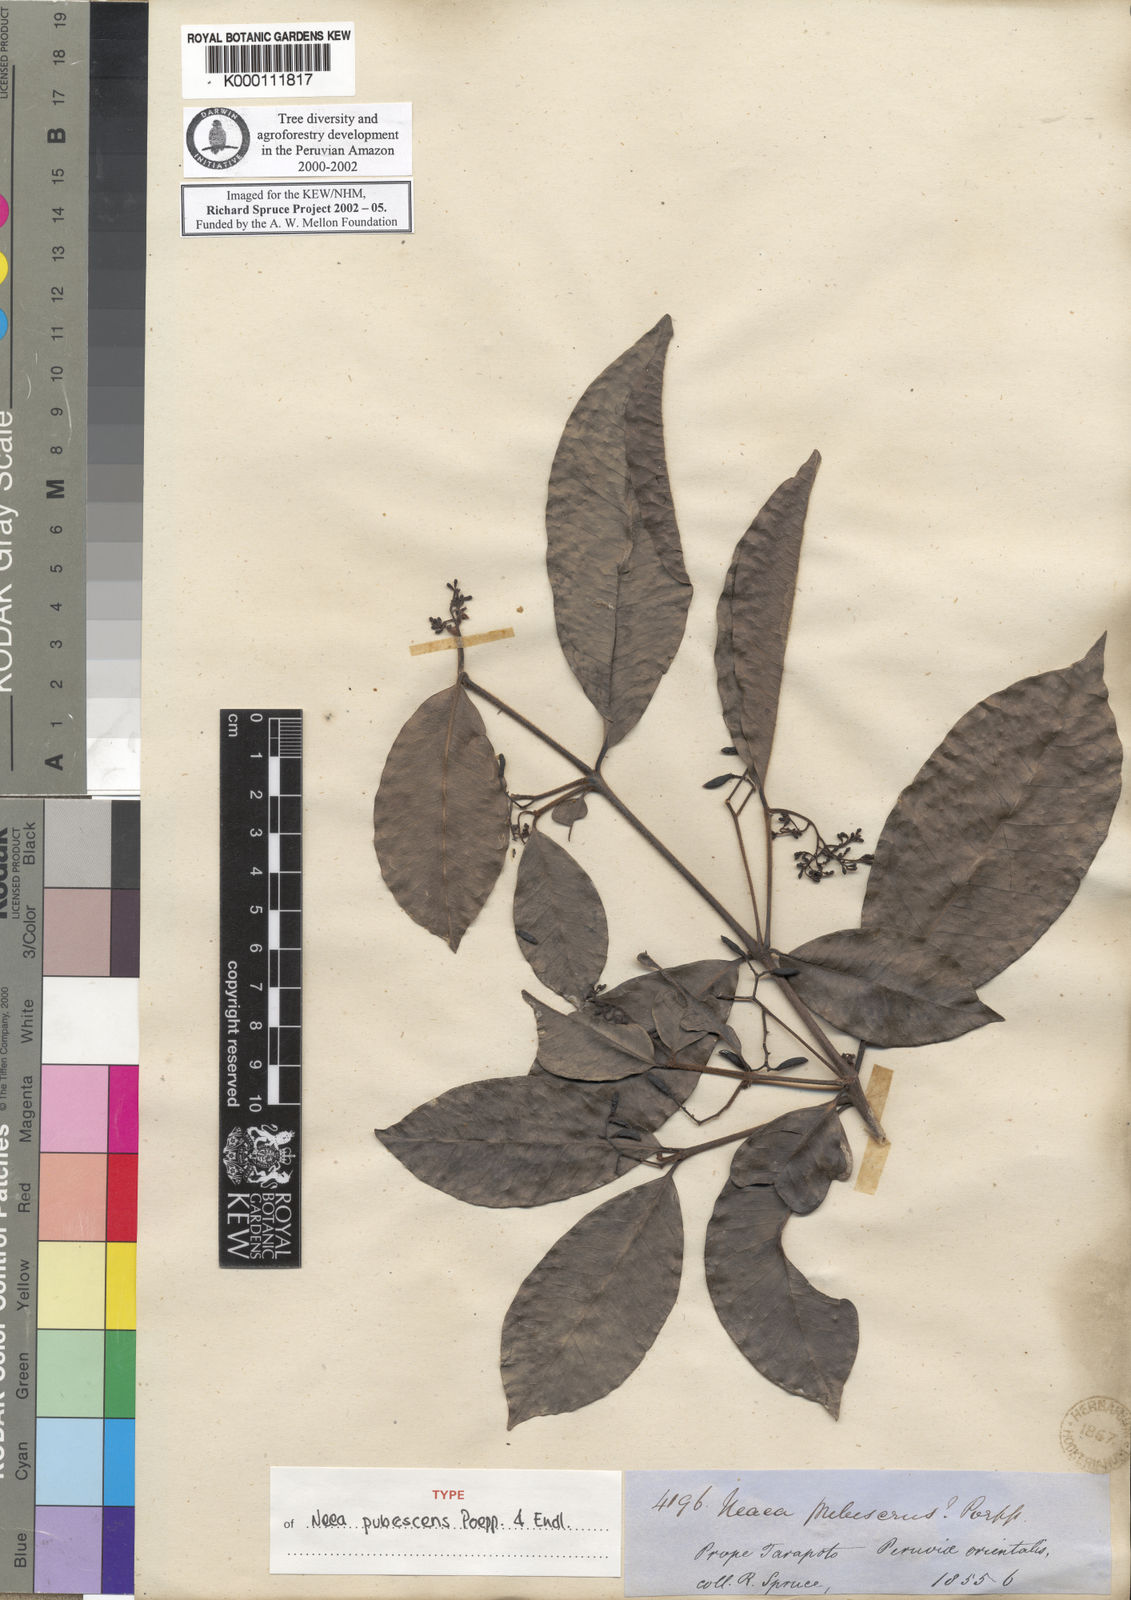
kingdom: Plantae
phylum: Tracheophyta
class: Magnoliopsida
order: Caryophyllales
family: Nyctaginaceae
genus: Neea
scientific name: Neea hermaphrodita
